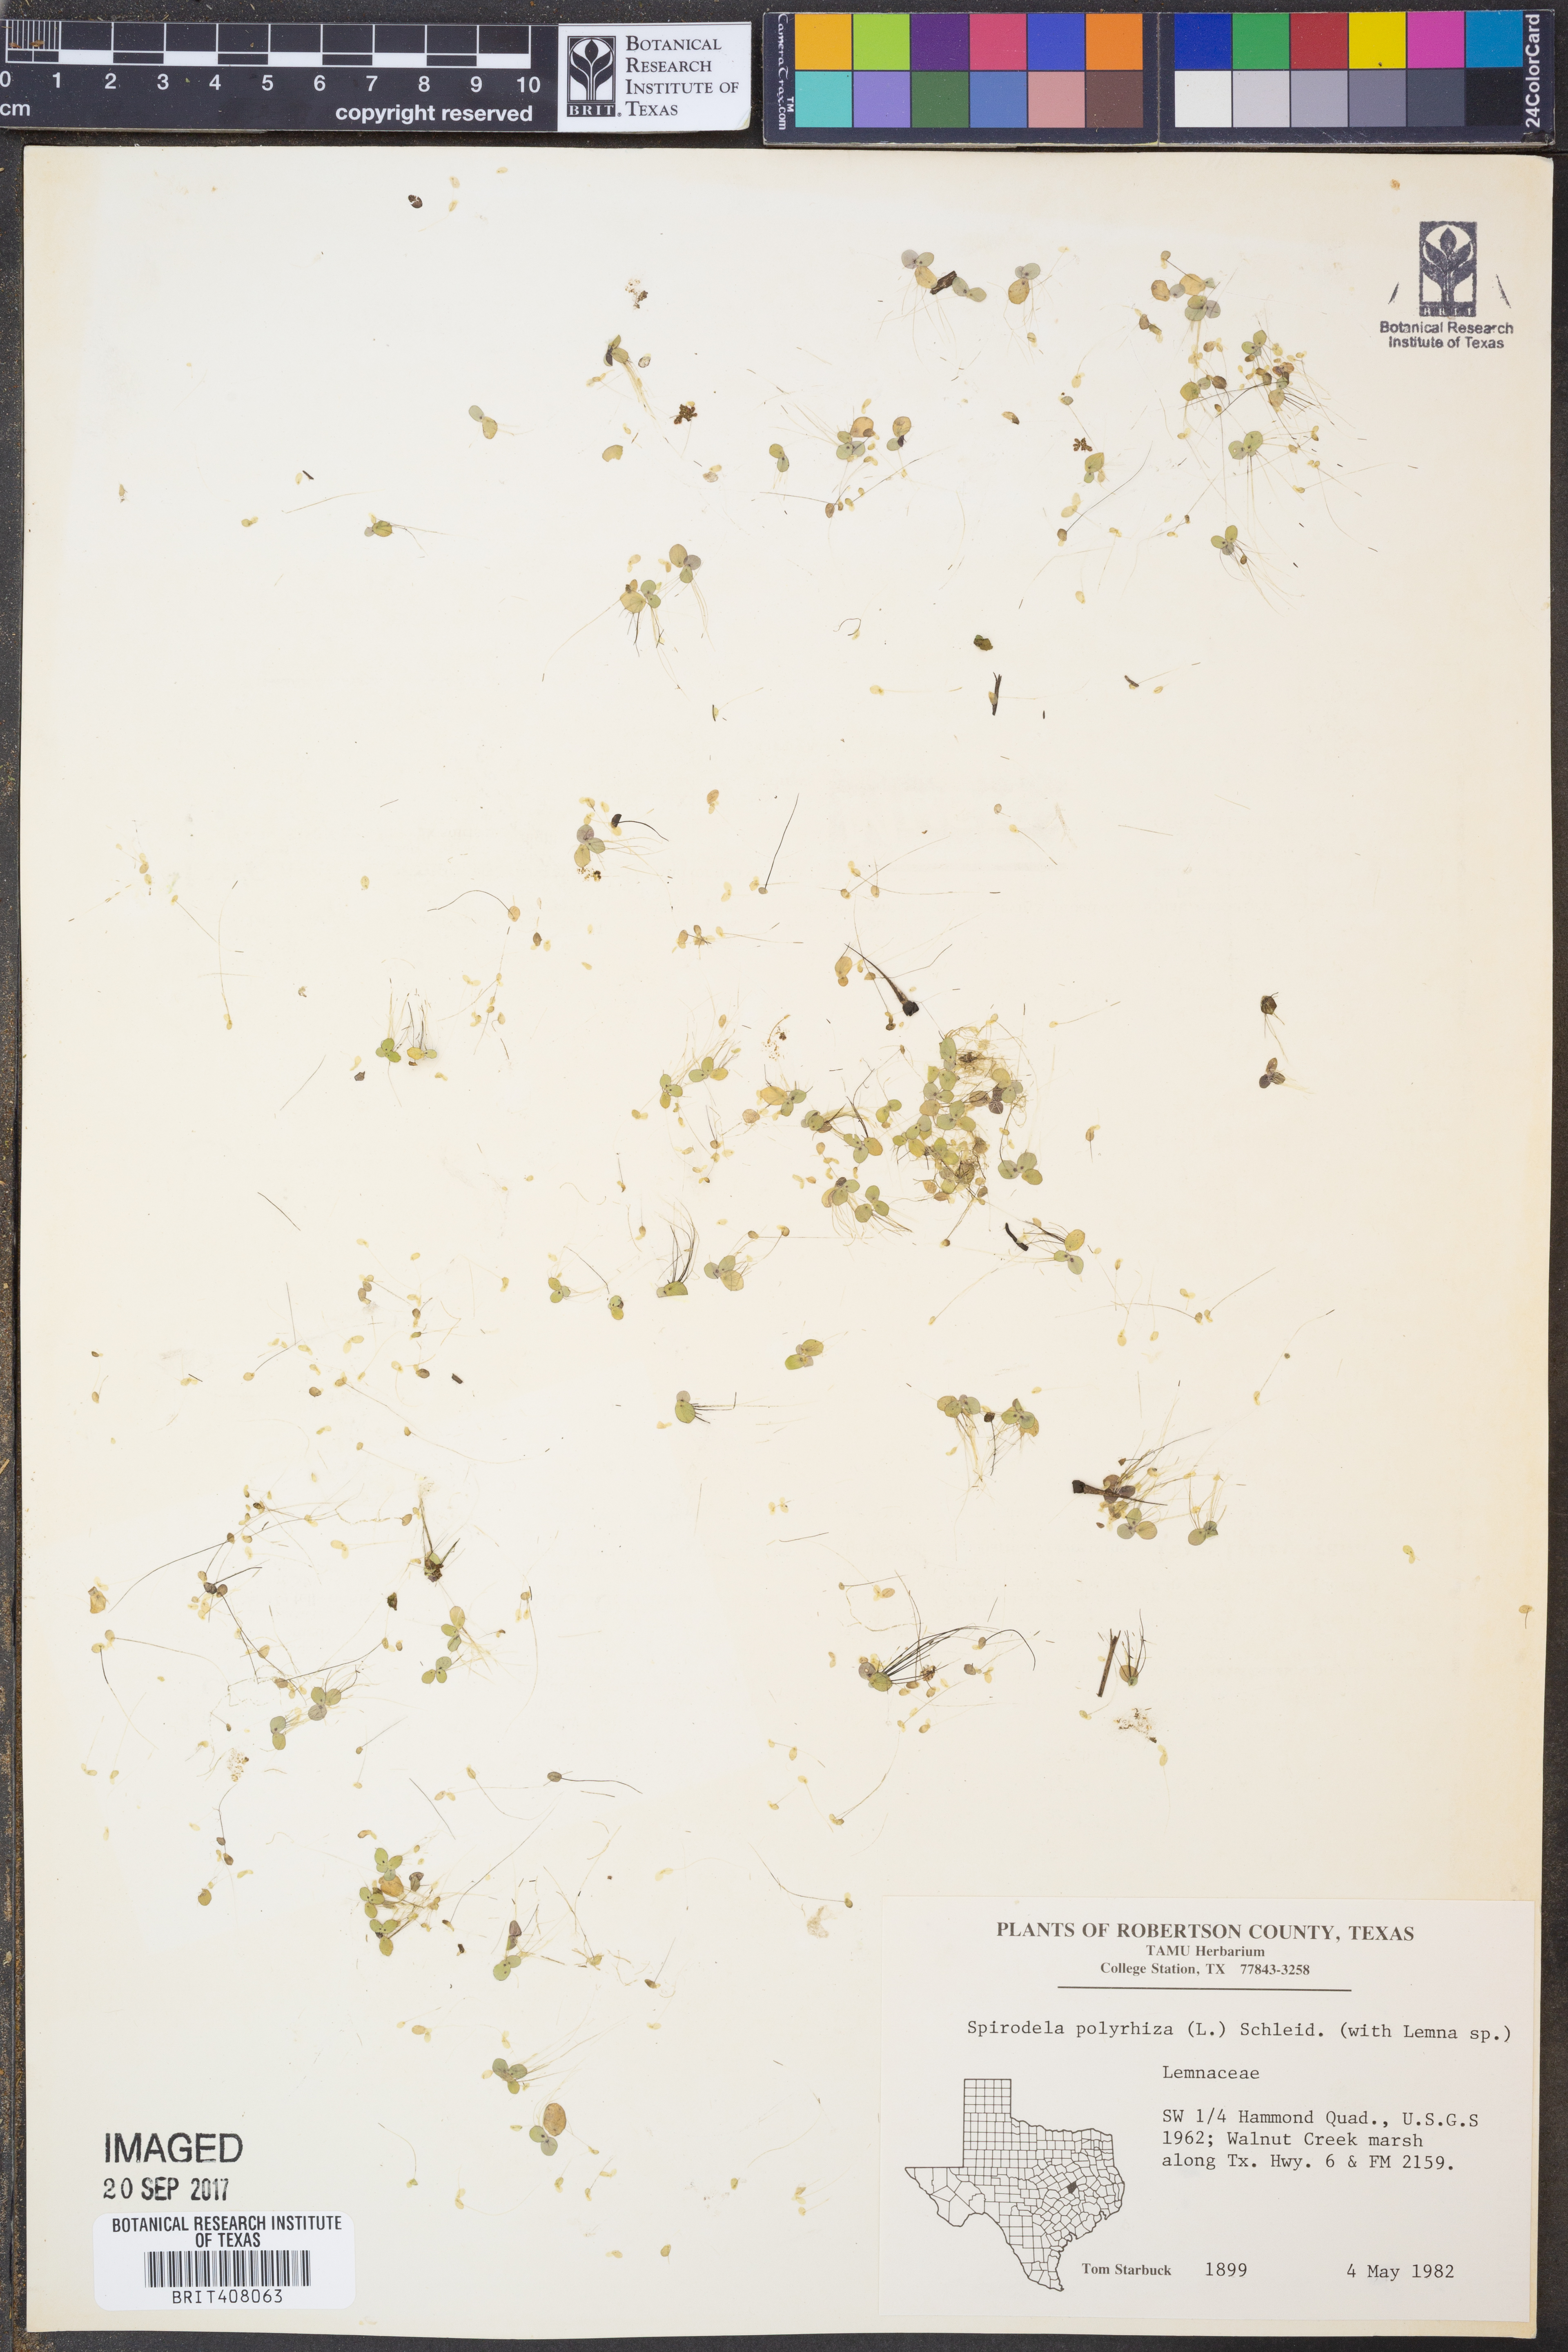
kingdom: Plantae
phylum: Tracheophyta
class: Liliopsida
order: Alismatales
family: Araceae
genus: Spirodela
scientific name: Spirodela polyrhiza
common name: Great duckweed
